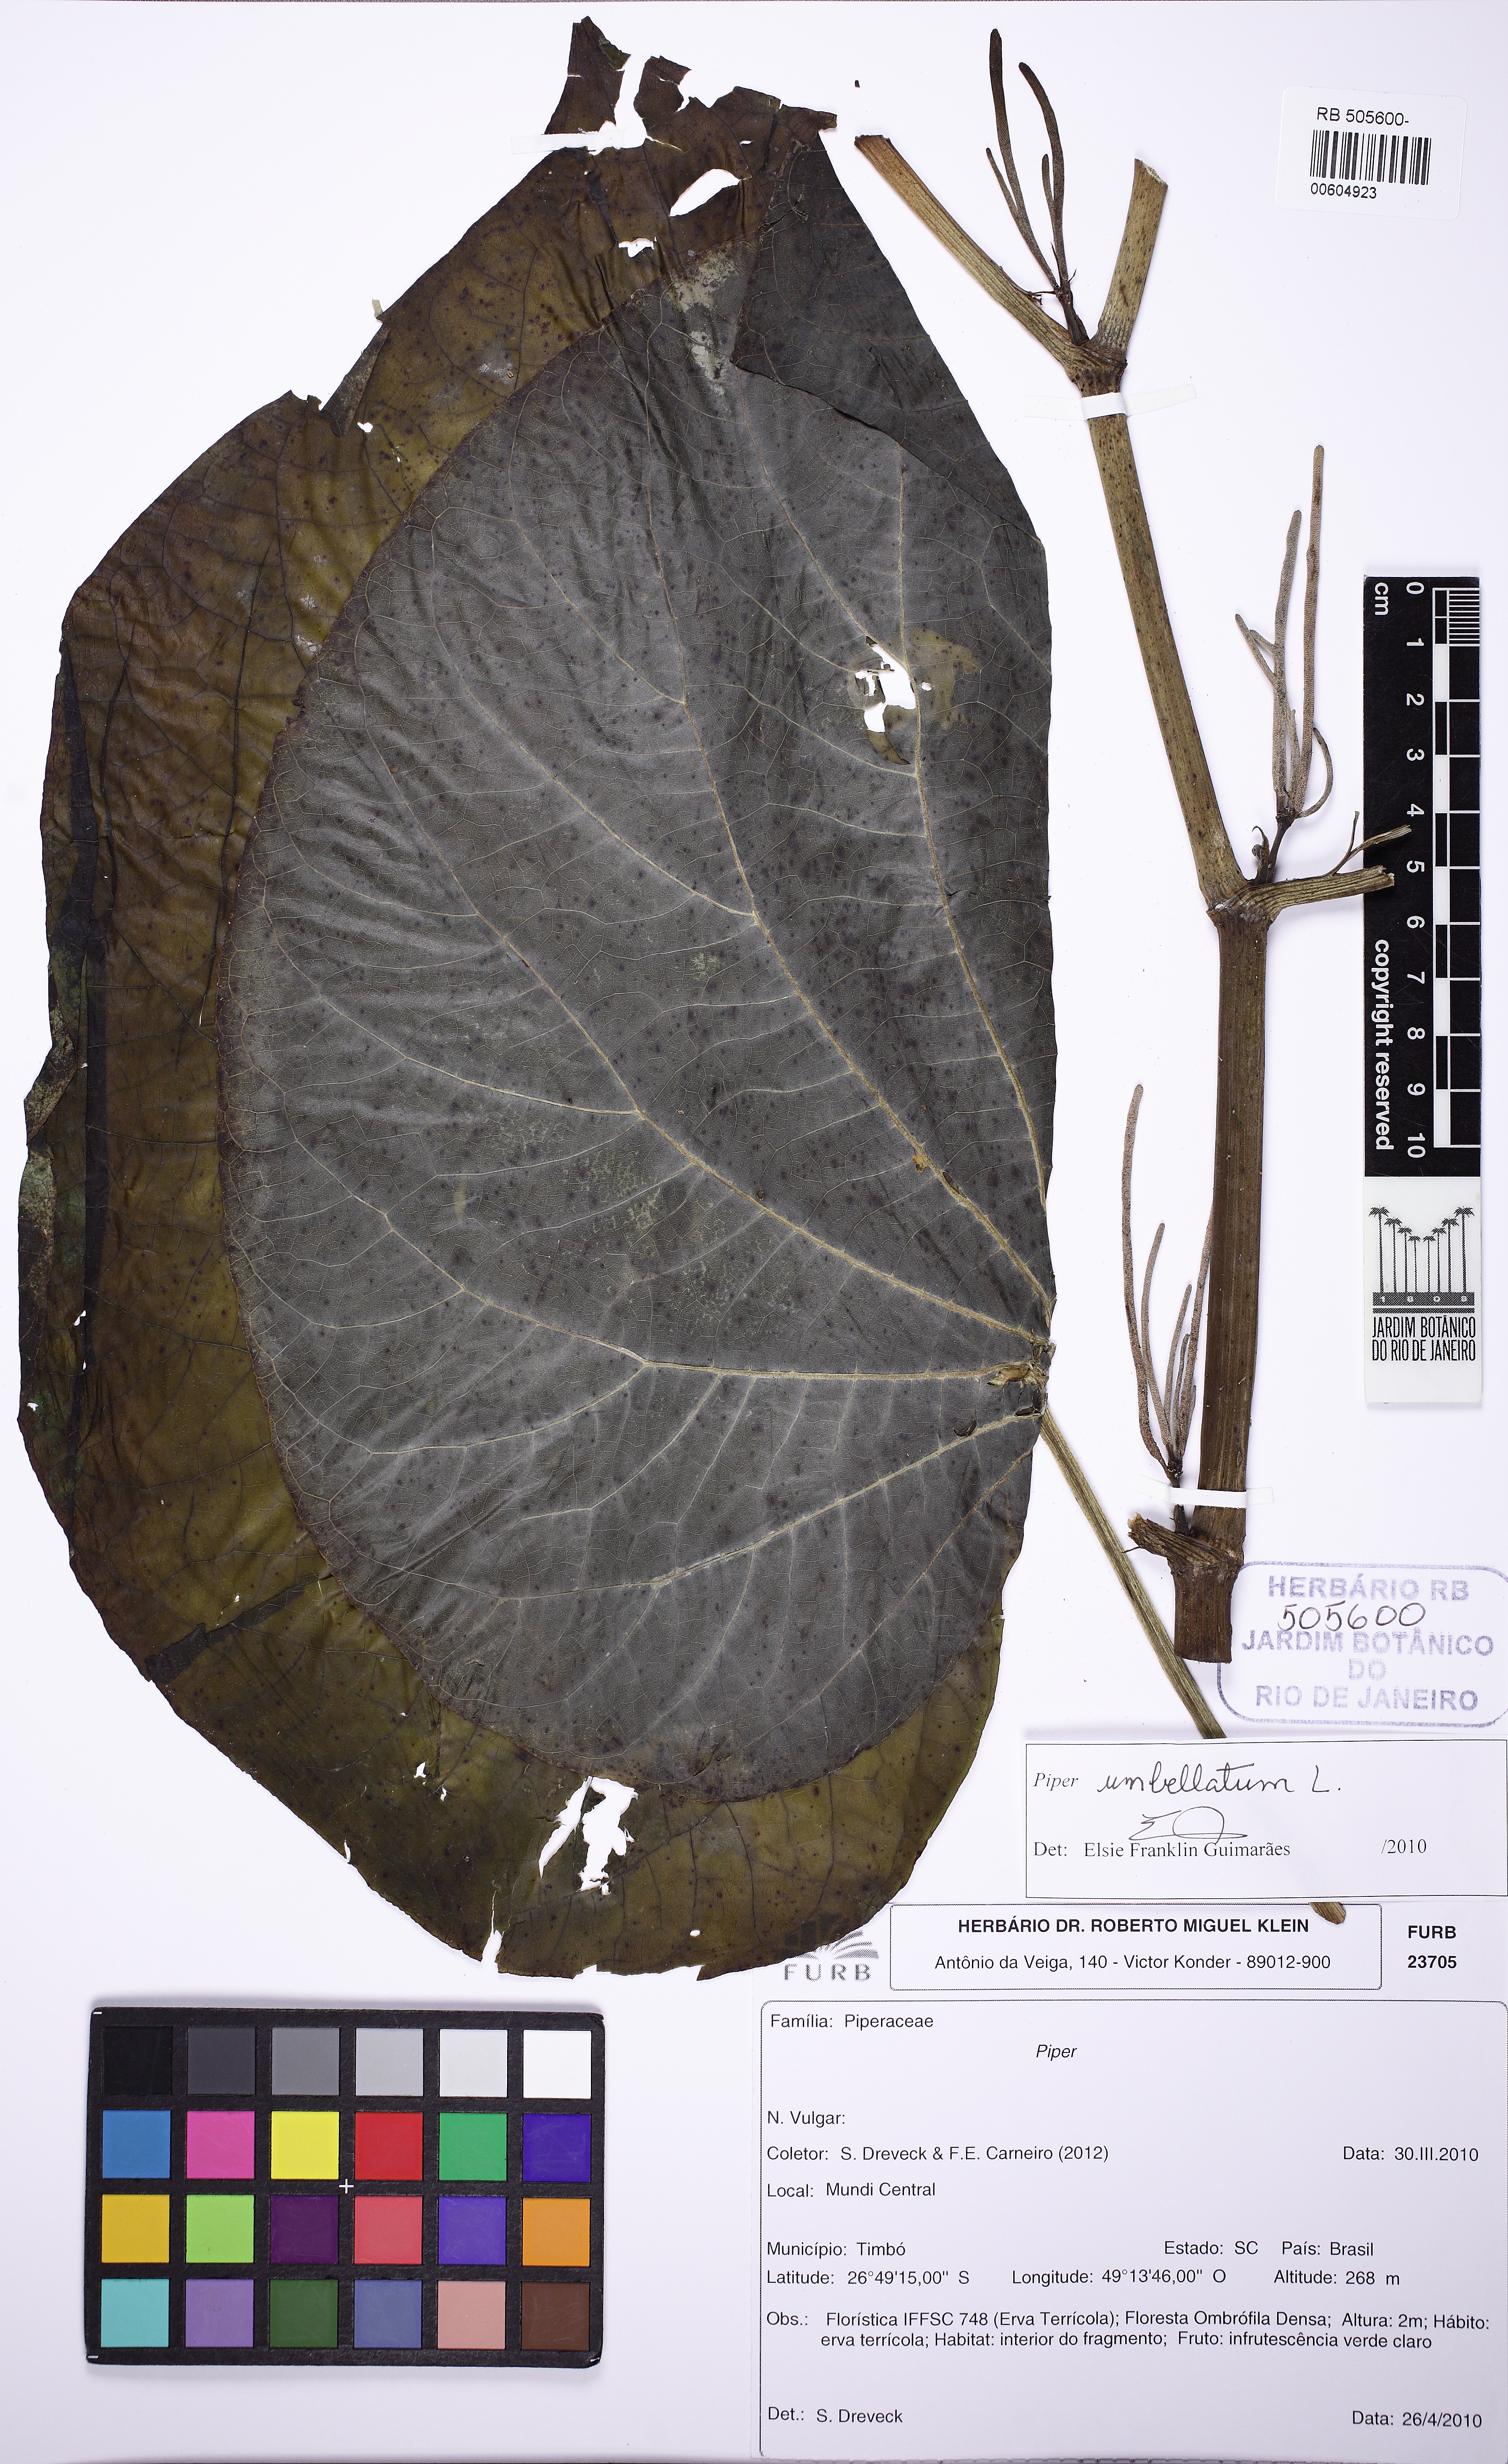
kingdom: Plantae
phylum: Tracheophyta
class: Magnoliopsida
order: Piperales
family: Piperaceae
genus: Piper
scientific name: Piper umbellatum
